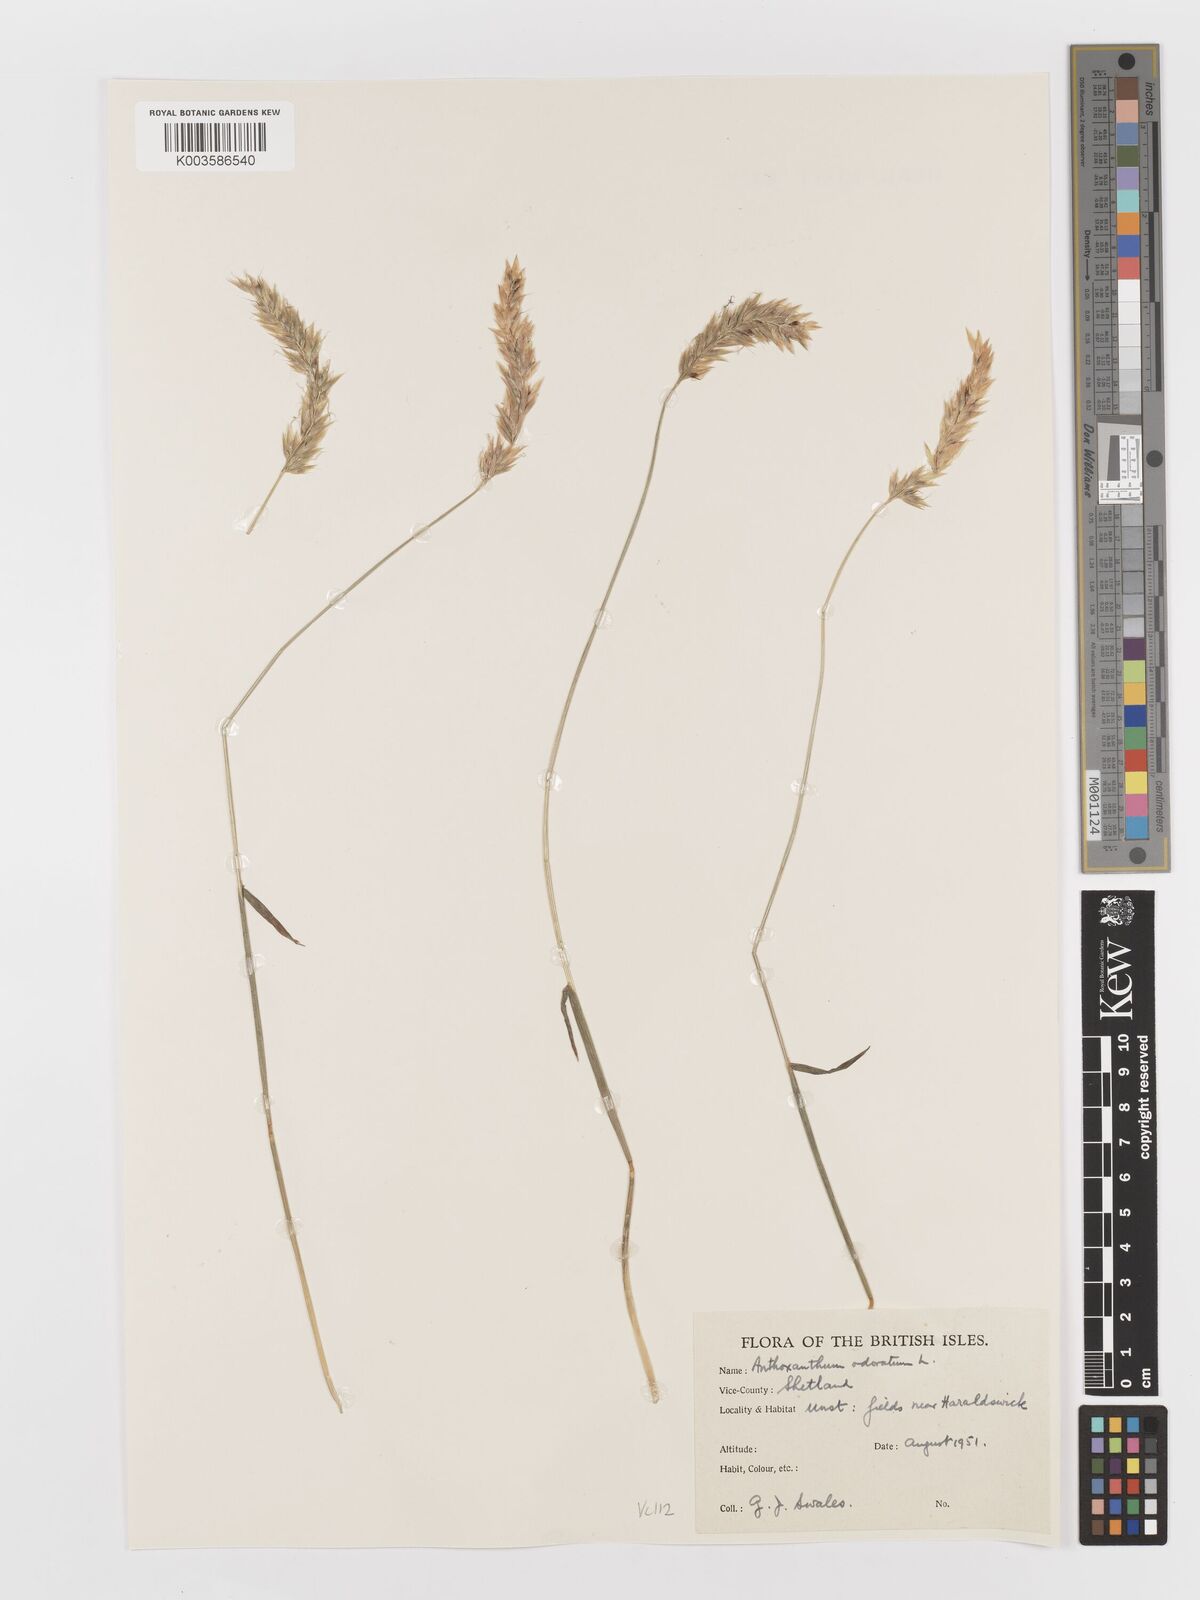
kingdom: Plantae
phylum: Tracheophyta
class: Liliopsida
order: Poales
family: Poaceae
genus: Anthoxanthum
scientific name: Anthoxanthum odoratum
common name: Sweet vernalgrass
